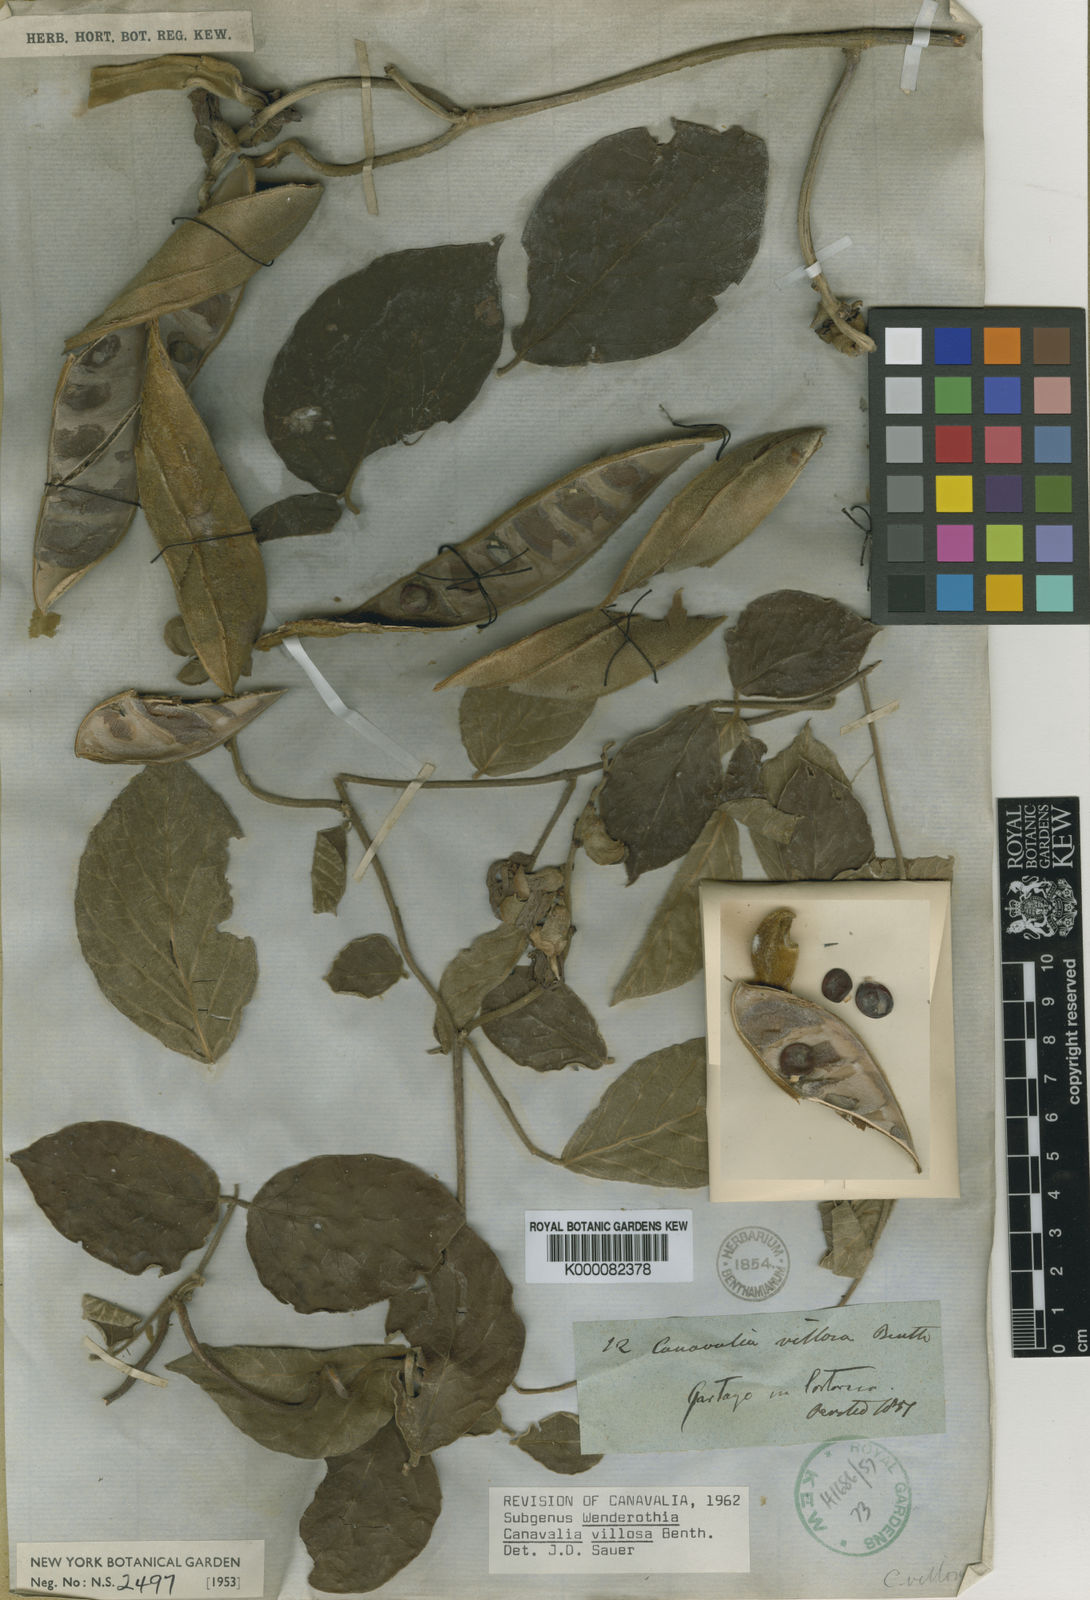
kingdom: Plantae
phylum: Tracheophyta
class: Magnoliopsida
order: Fabales
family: Fabaceae
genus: Canavalia
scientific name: Canavalia villosa
